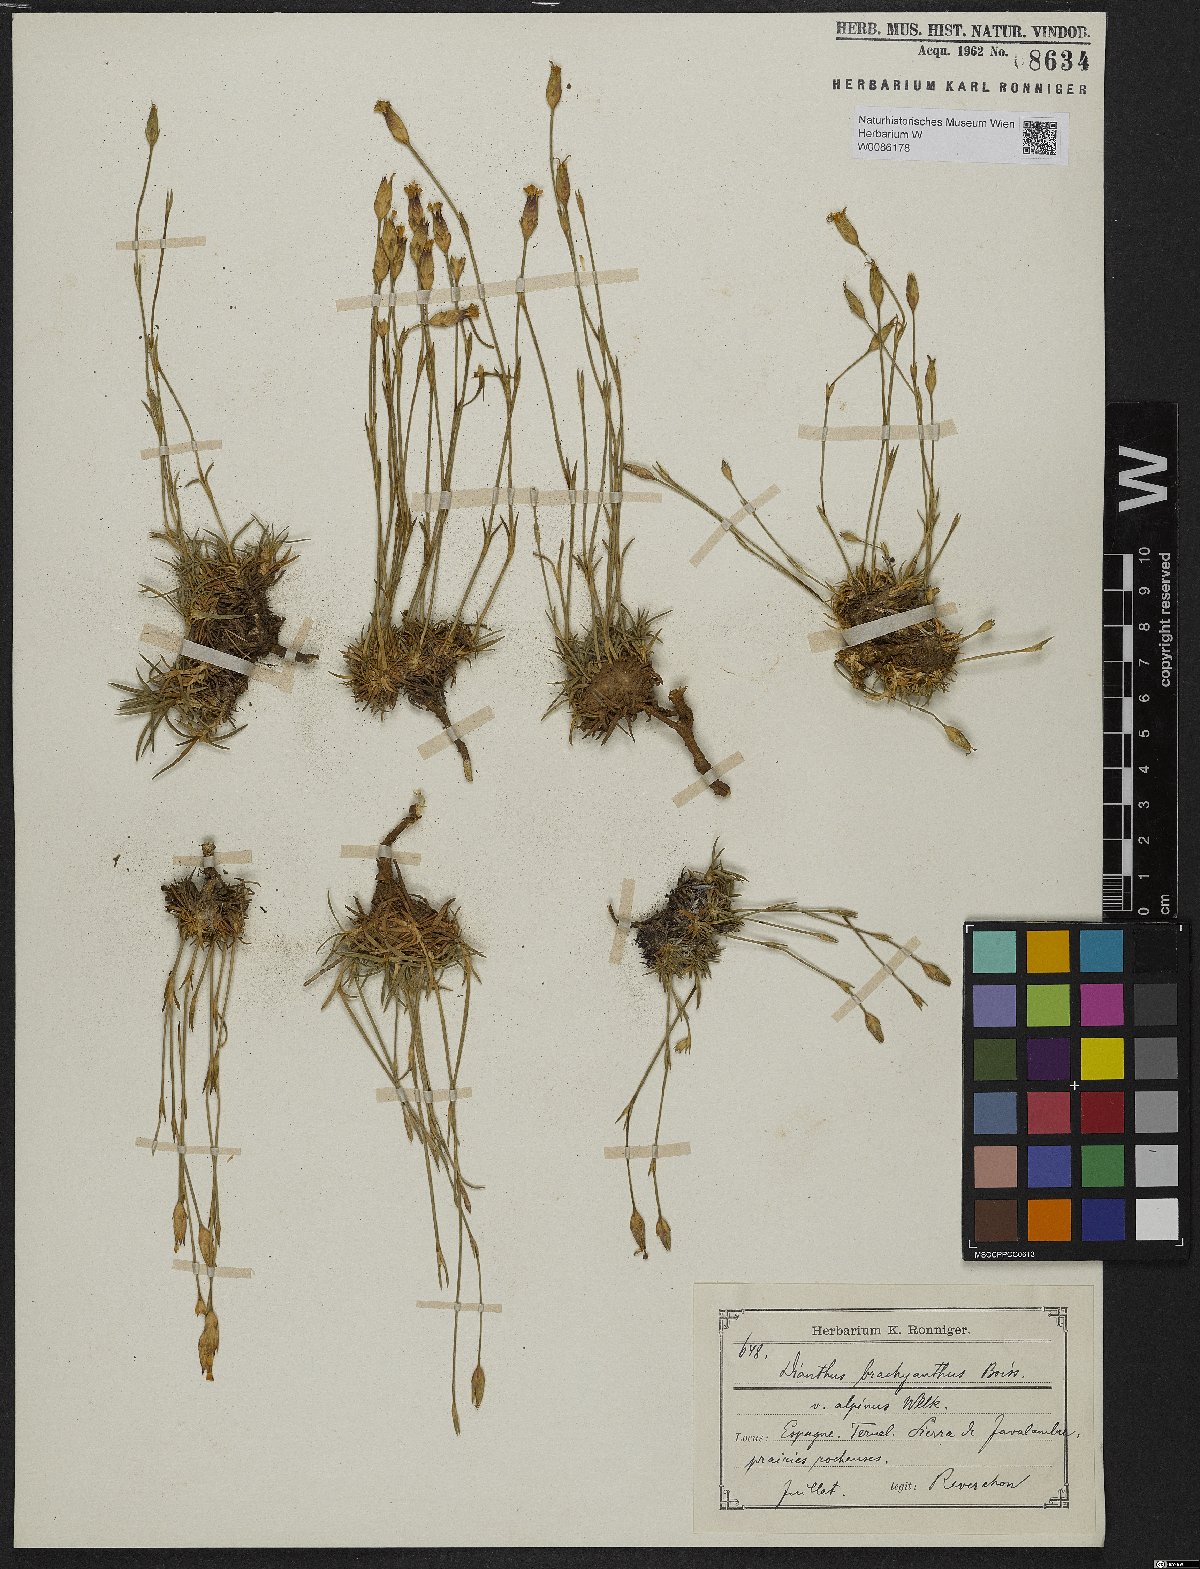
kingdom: Plantae
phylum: Tracheophyta
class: Magnoliopsida
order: Caryophyllales
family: Caryophyllaceae
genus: Dianthus
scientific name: Dianthus subacaulis
